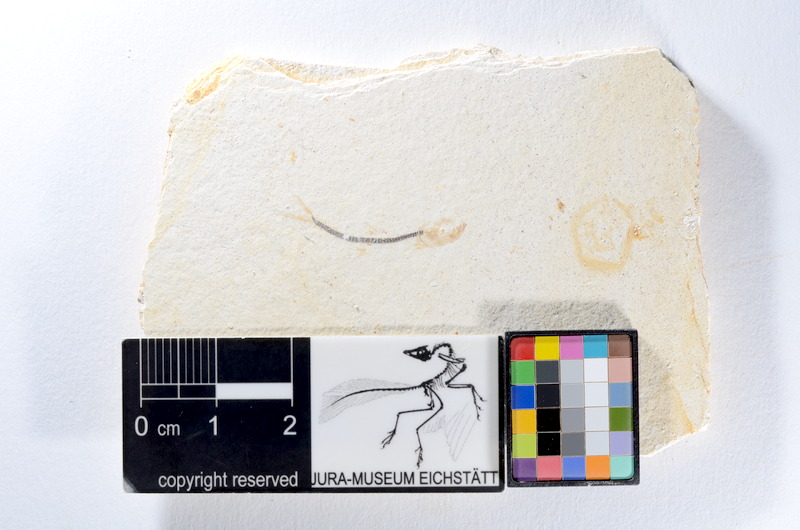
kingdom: Animalia
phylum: Chordata
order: Salmoniformes
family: Orthogonikleithridae
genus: Orthogonikleithrus
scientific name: Orthogonikleithrus hoelli
